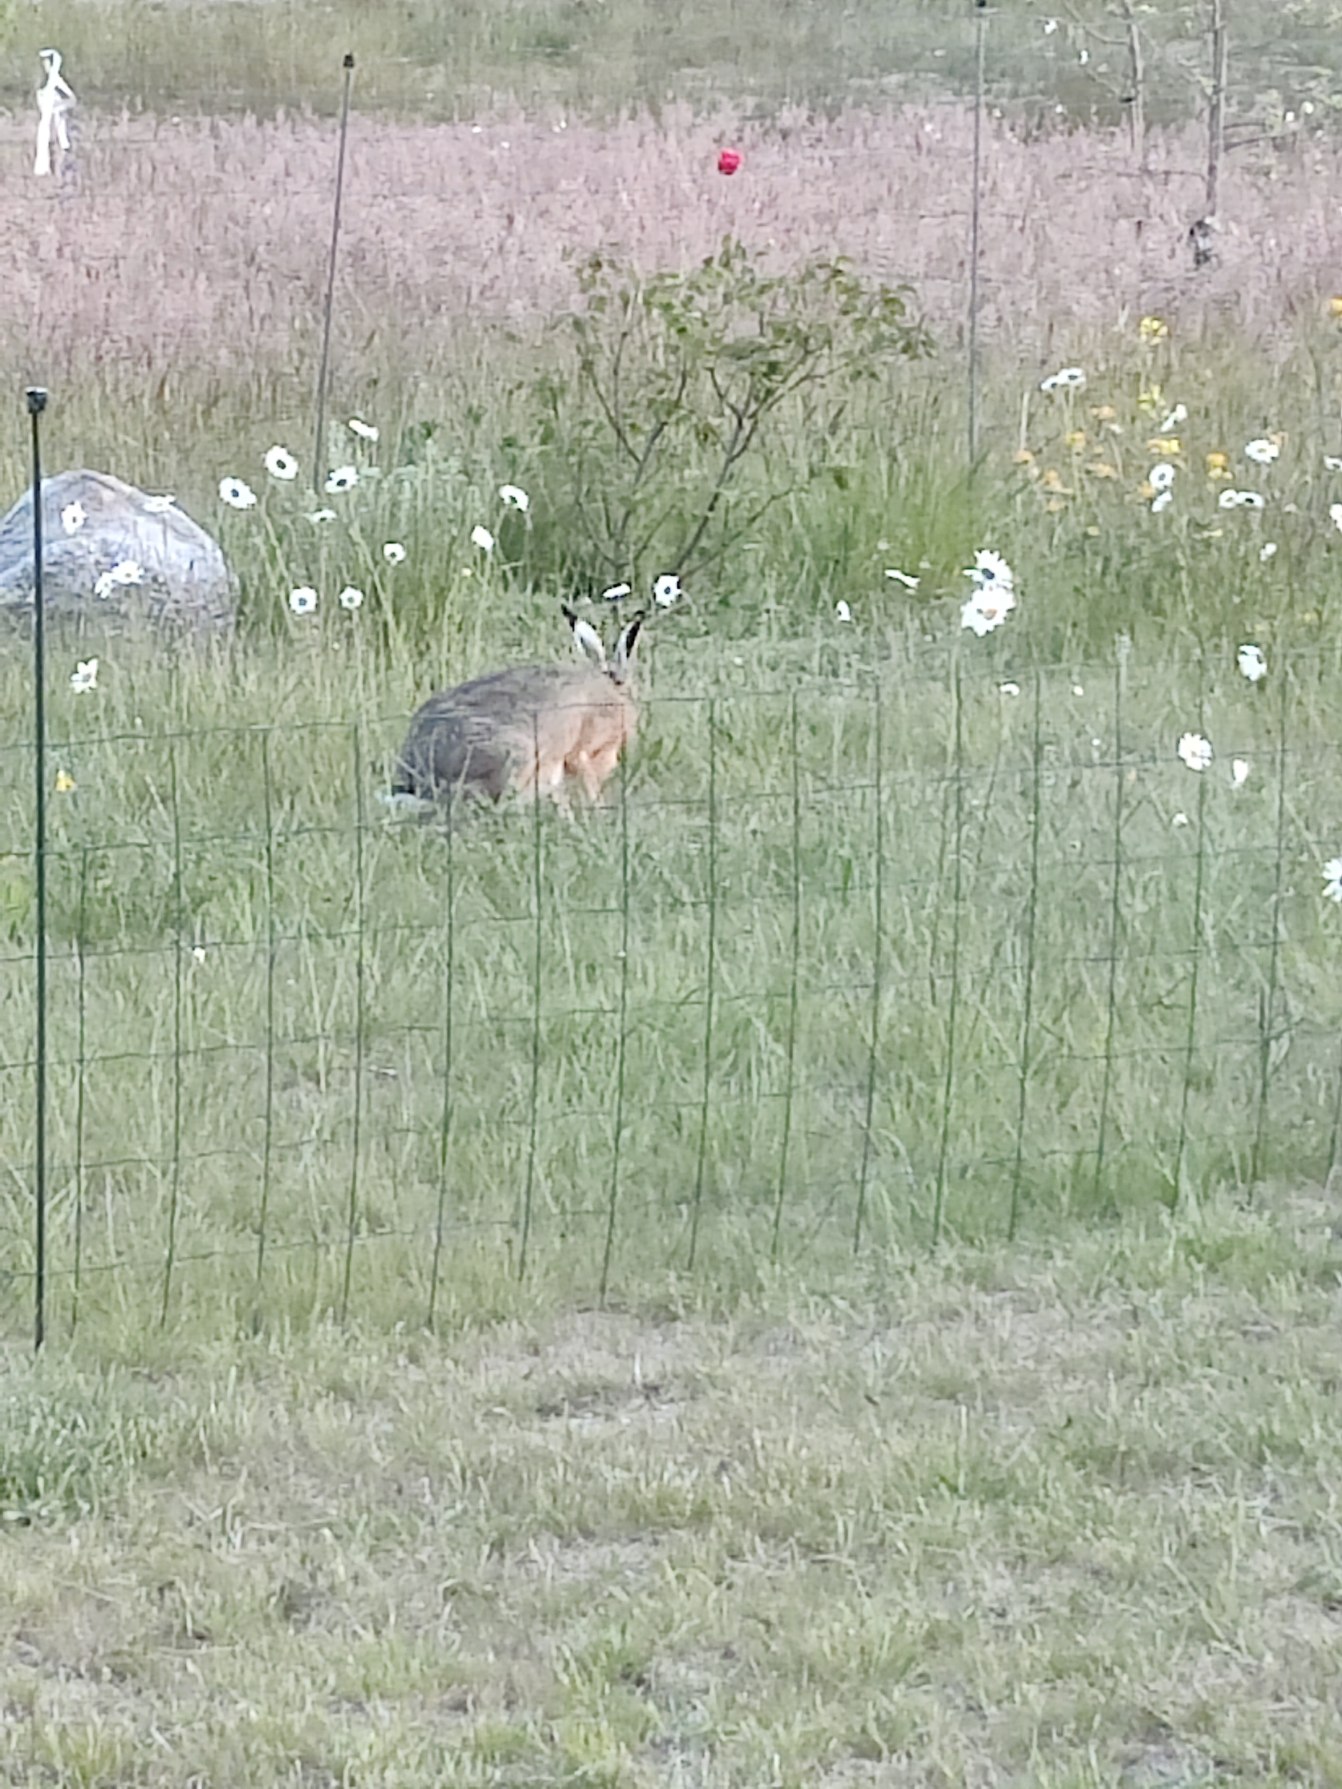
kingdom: Animalia
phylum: Chordata
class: Mammalia
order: Lagomorpha
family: Leporidae
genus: Lepus
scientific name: Lepus europaeus
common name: Hare
